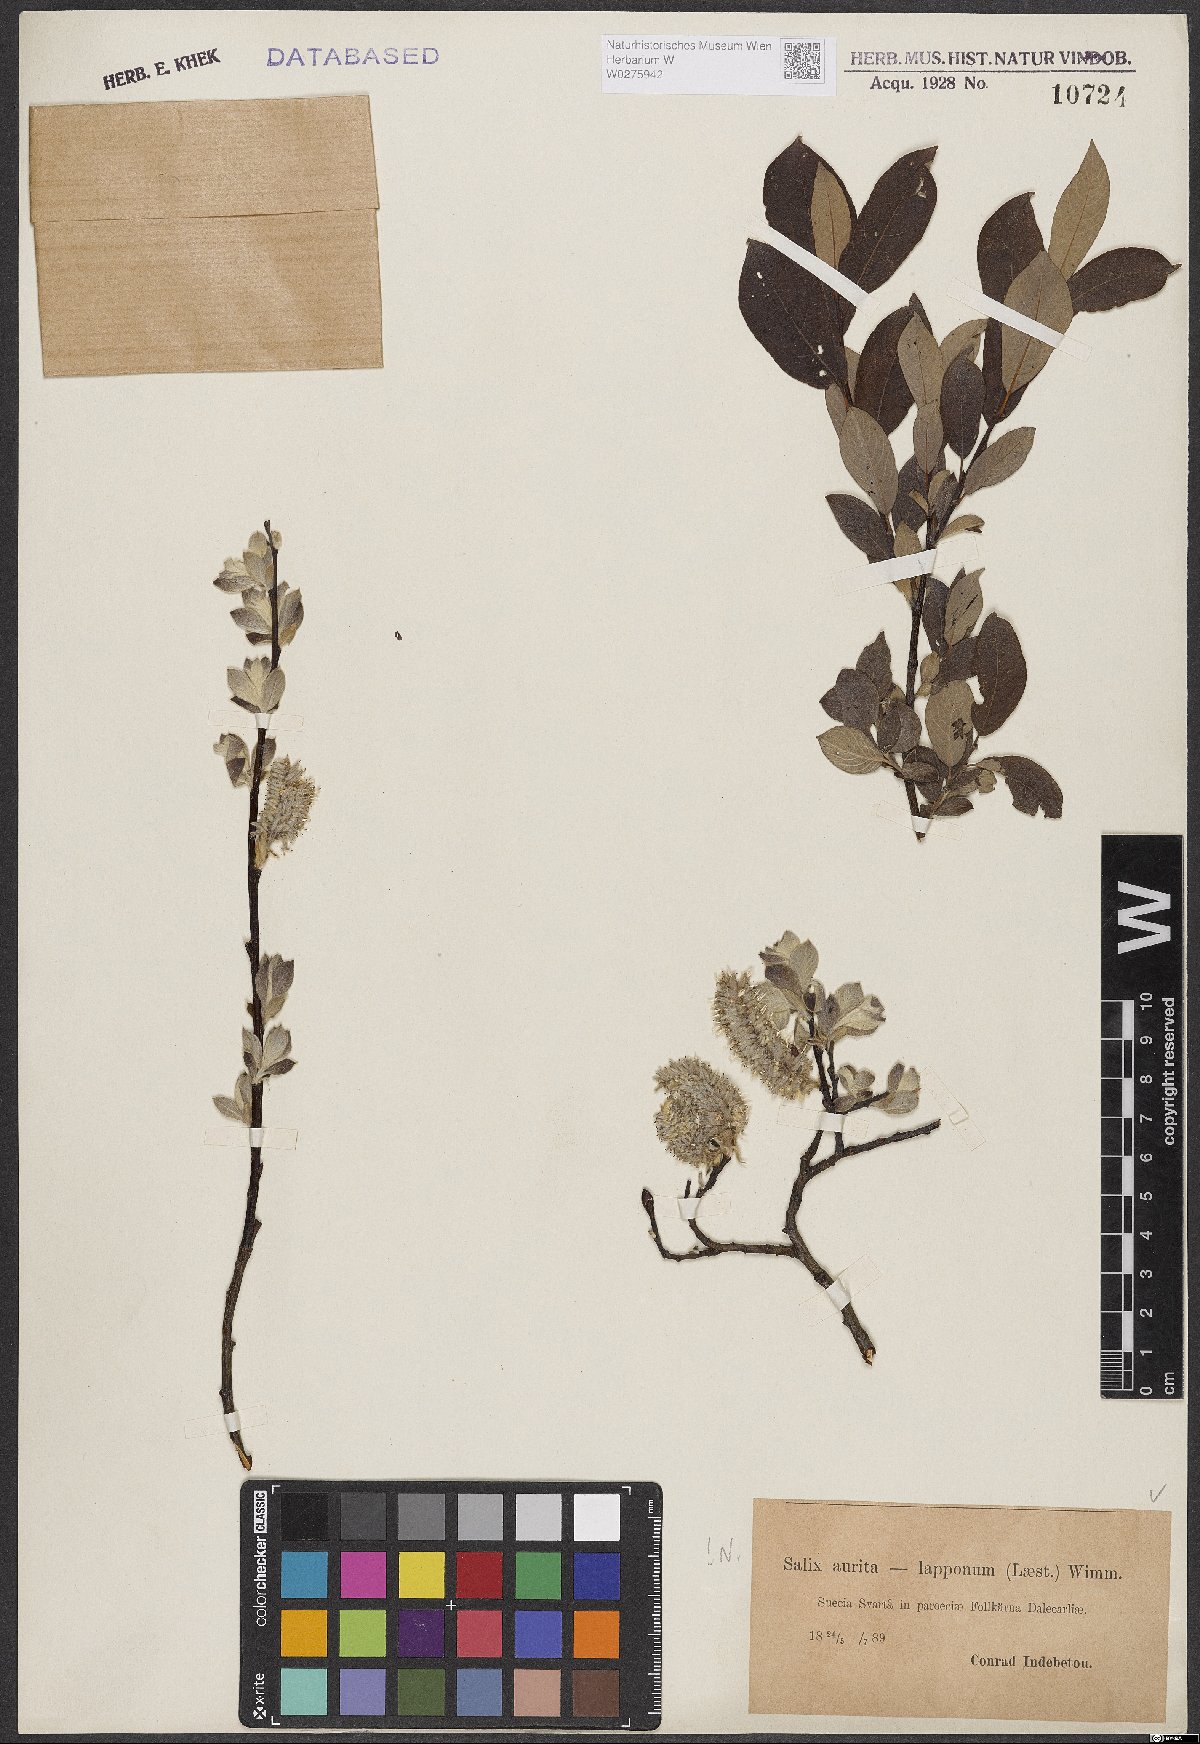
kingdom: Plantae
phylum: Tracheophyta
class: Magnoliopsida
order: Malpighiales
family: Salicaceae
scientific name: Salicaceae
